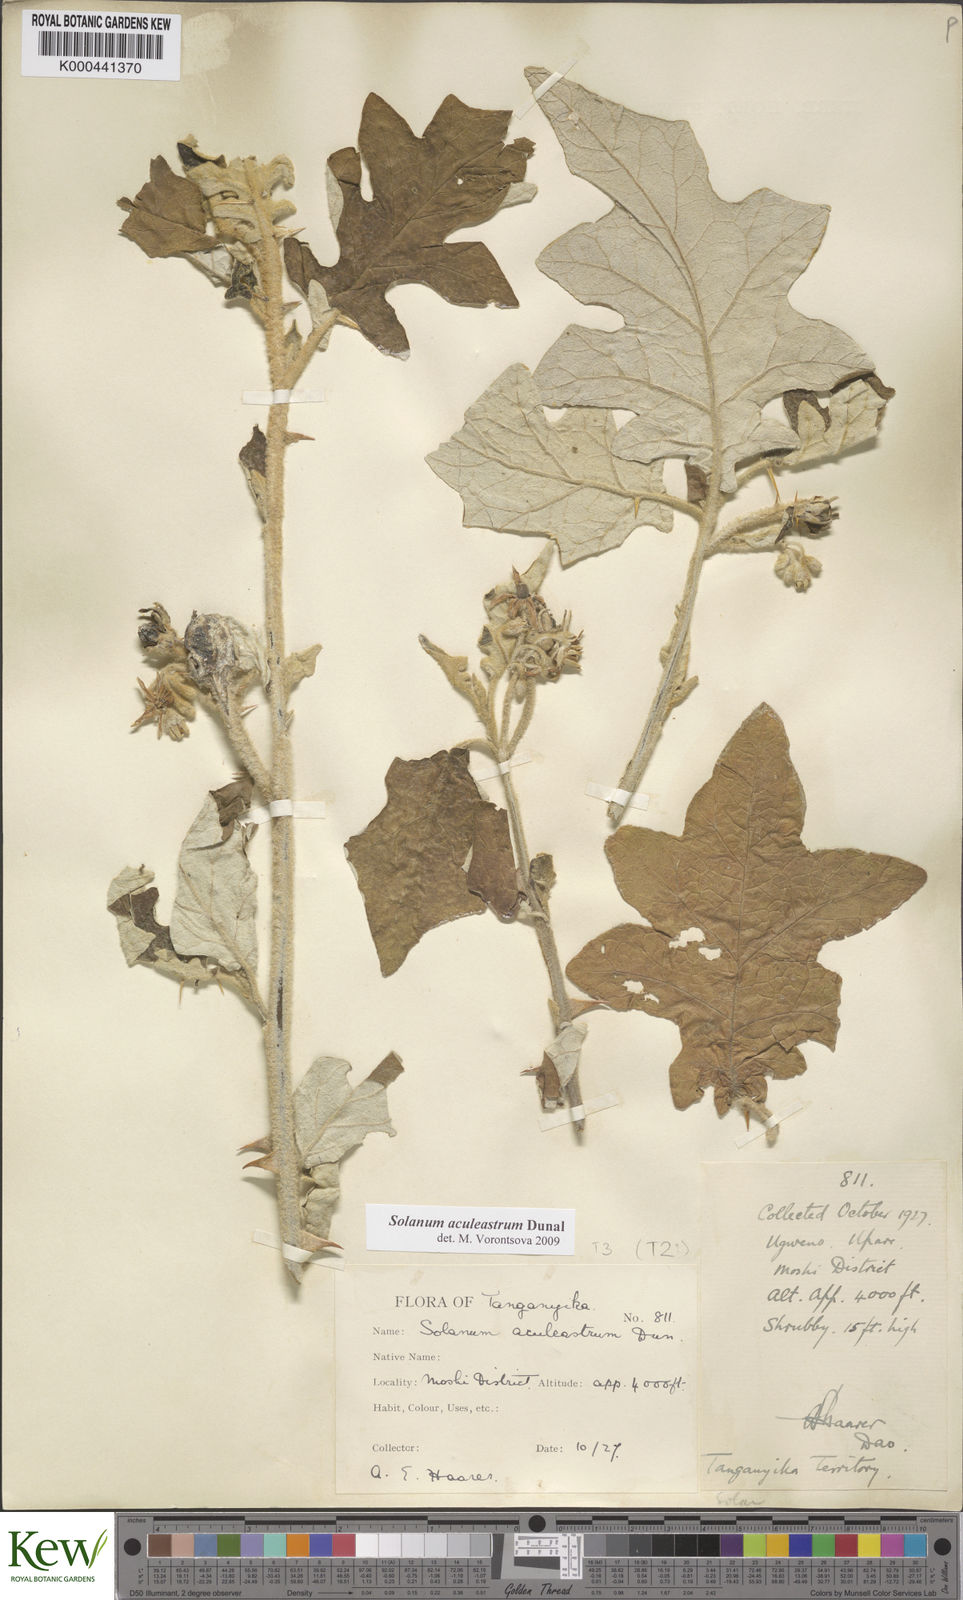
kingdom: Plantae
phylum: Tracheophyta
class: Magnoliopsida
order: Solanales
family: Solanaceae
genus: Solanum
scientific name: Solanum aculeastrum
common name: Goat bitter-apple
